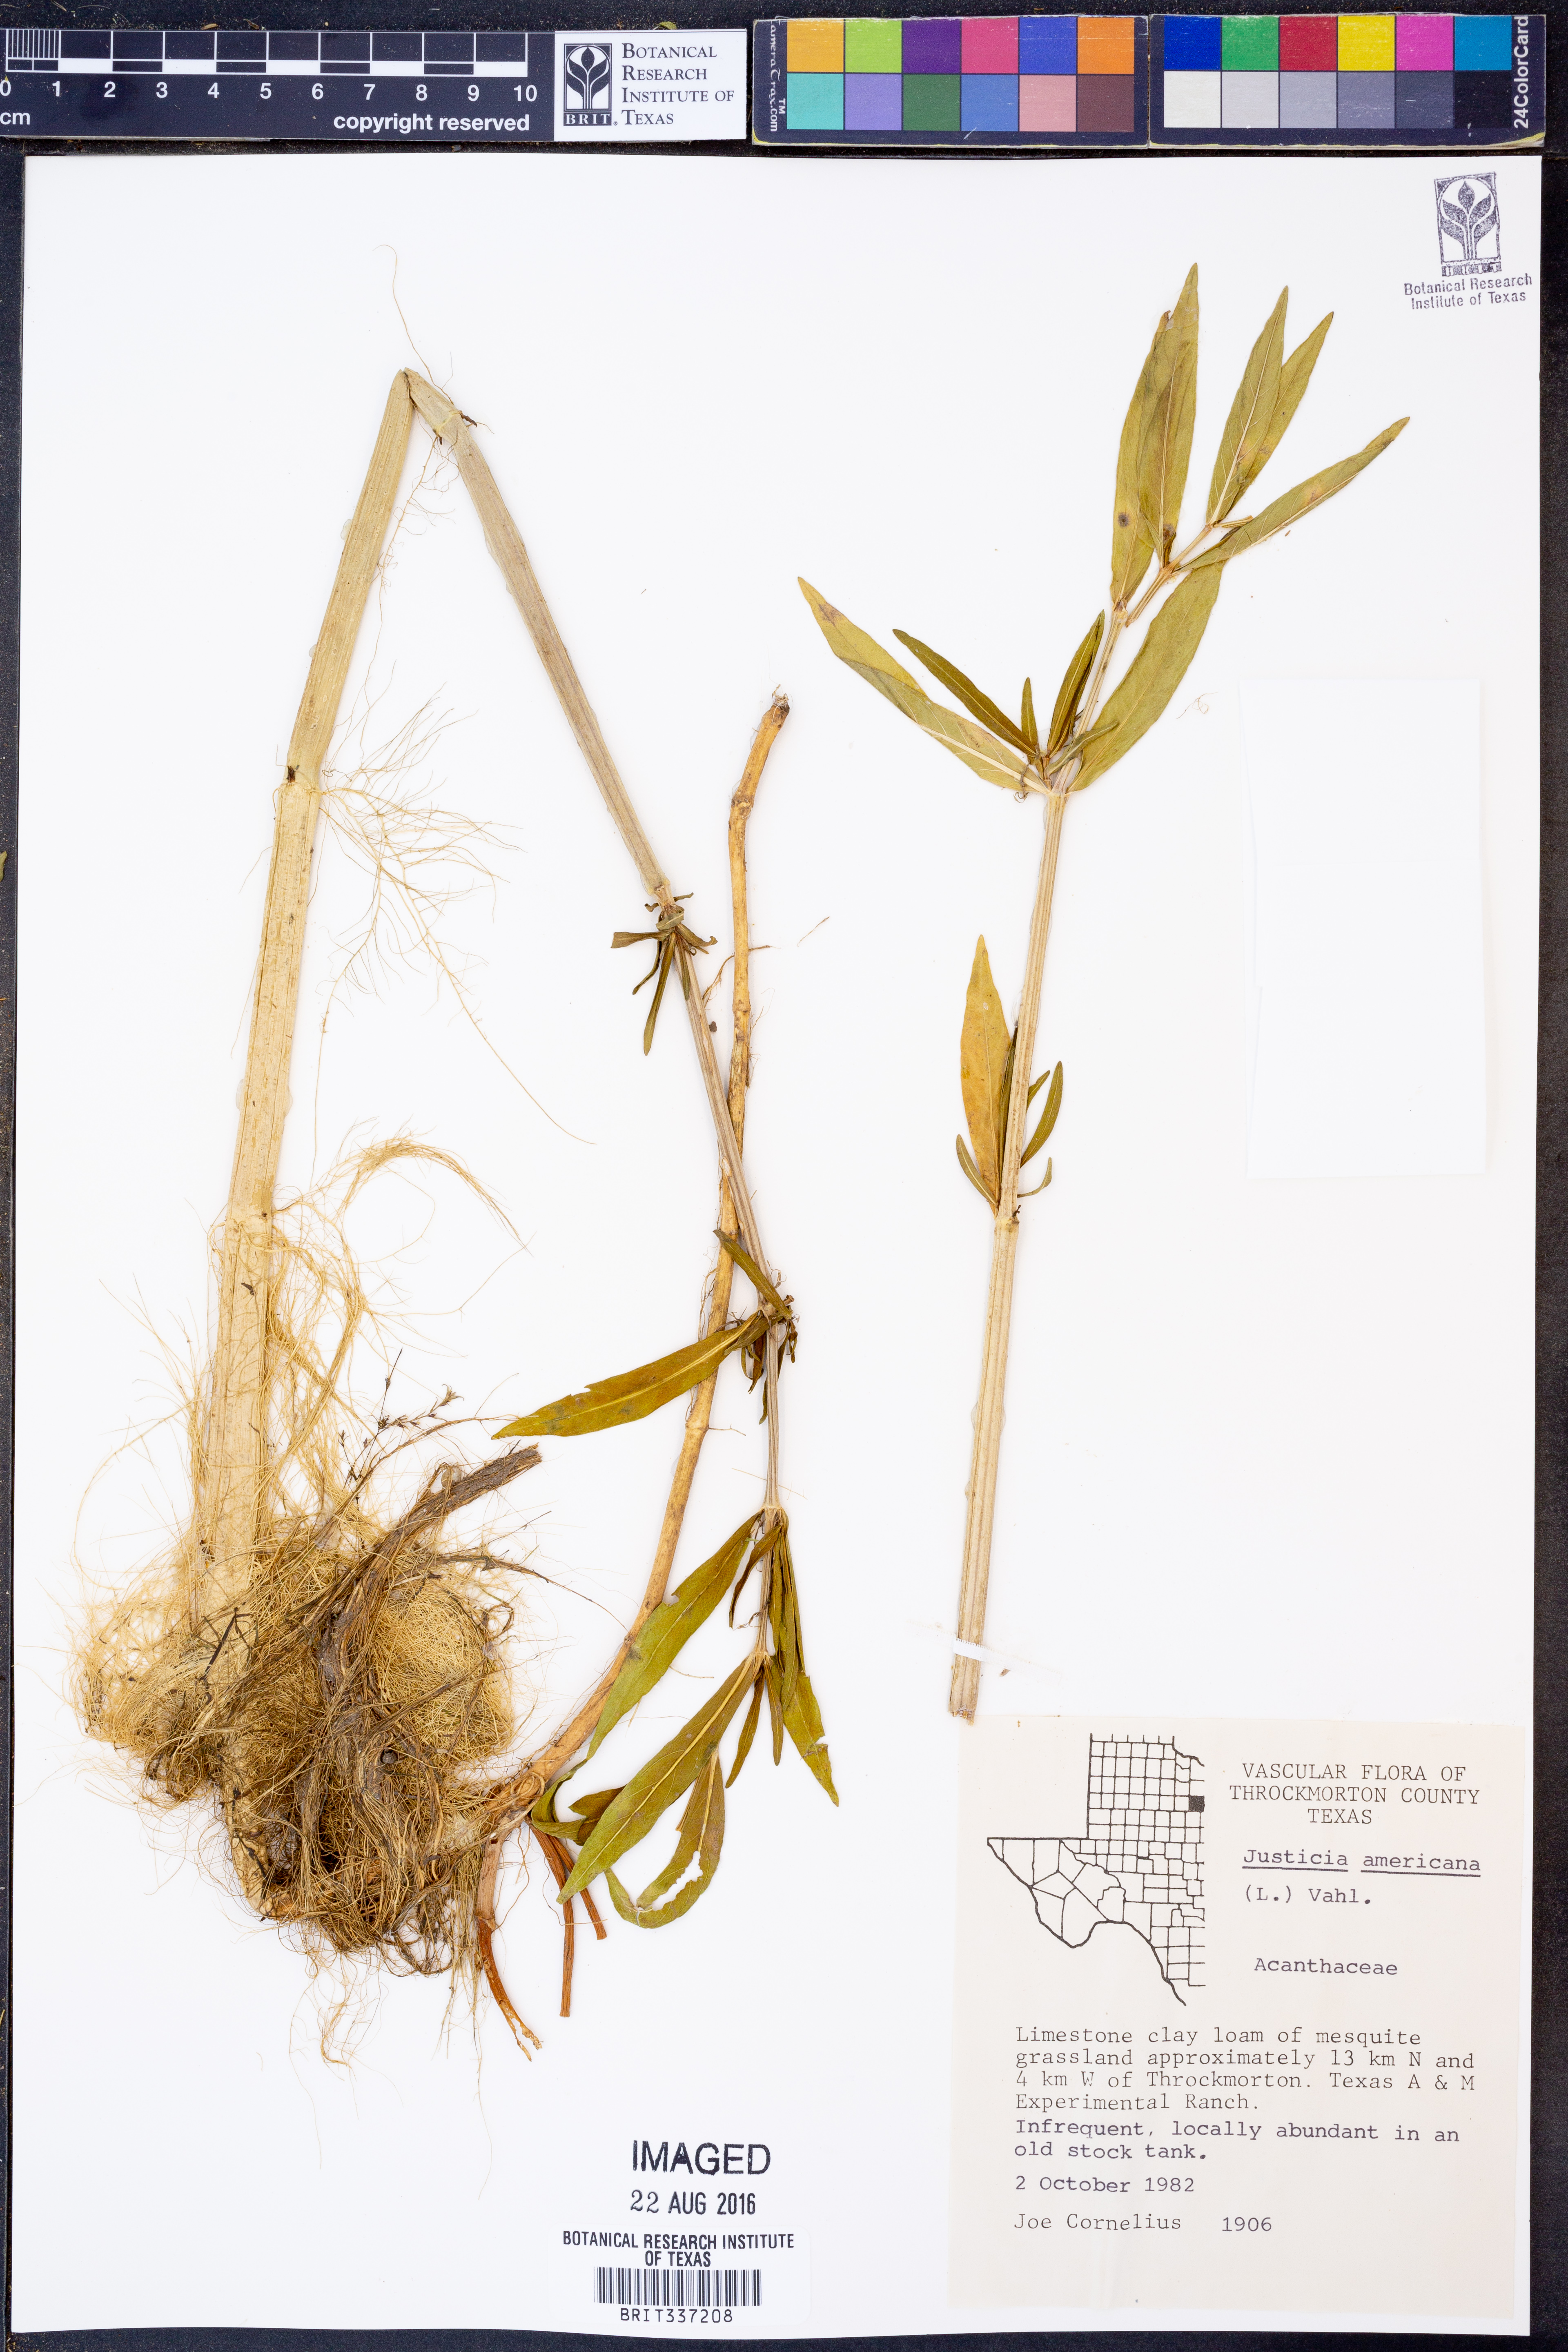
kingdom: Plantae
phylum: Tracheophyta
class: Magnoliopsida
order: Lamiales
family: Acanthaceae
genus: Dianthera
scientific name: Dianthera americana
